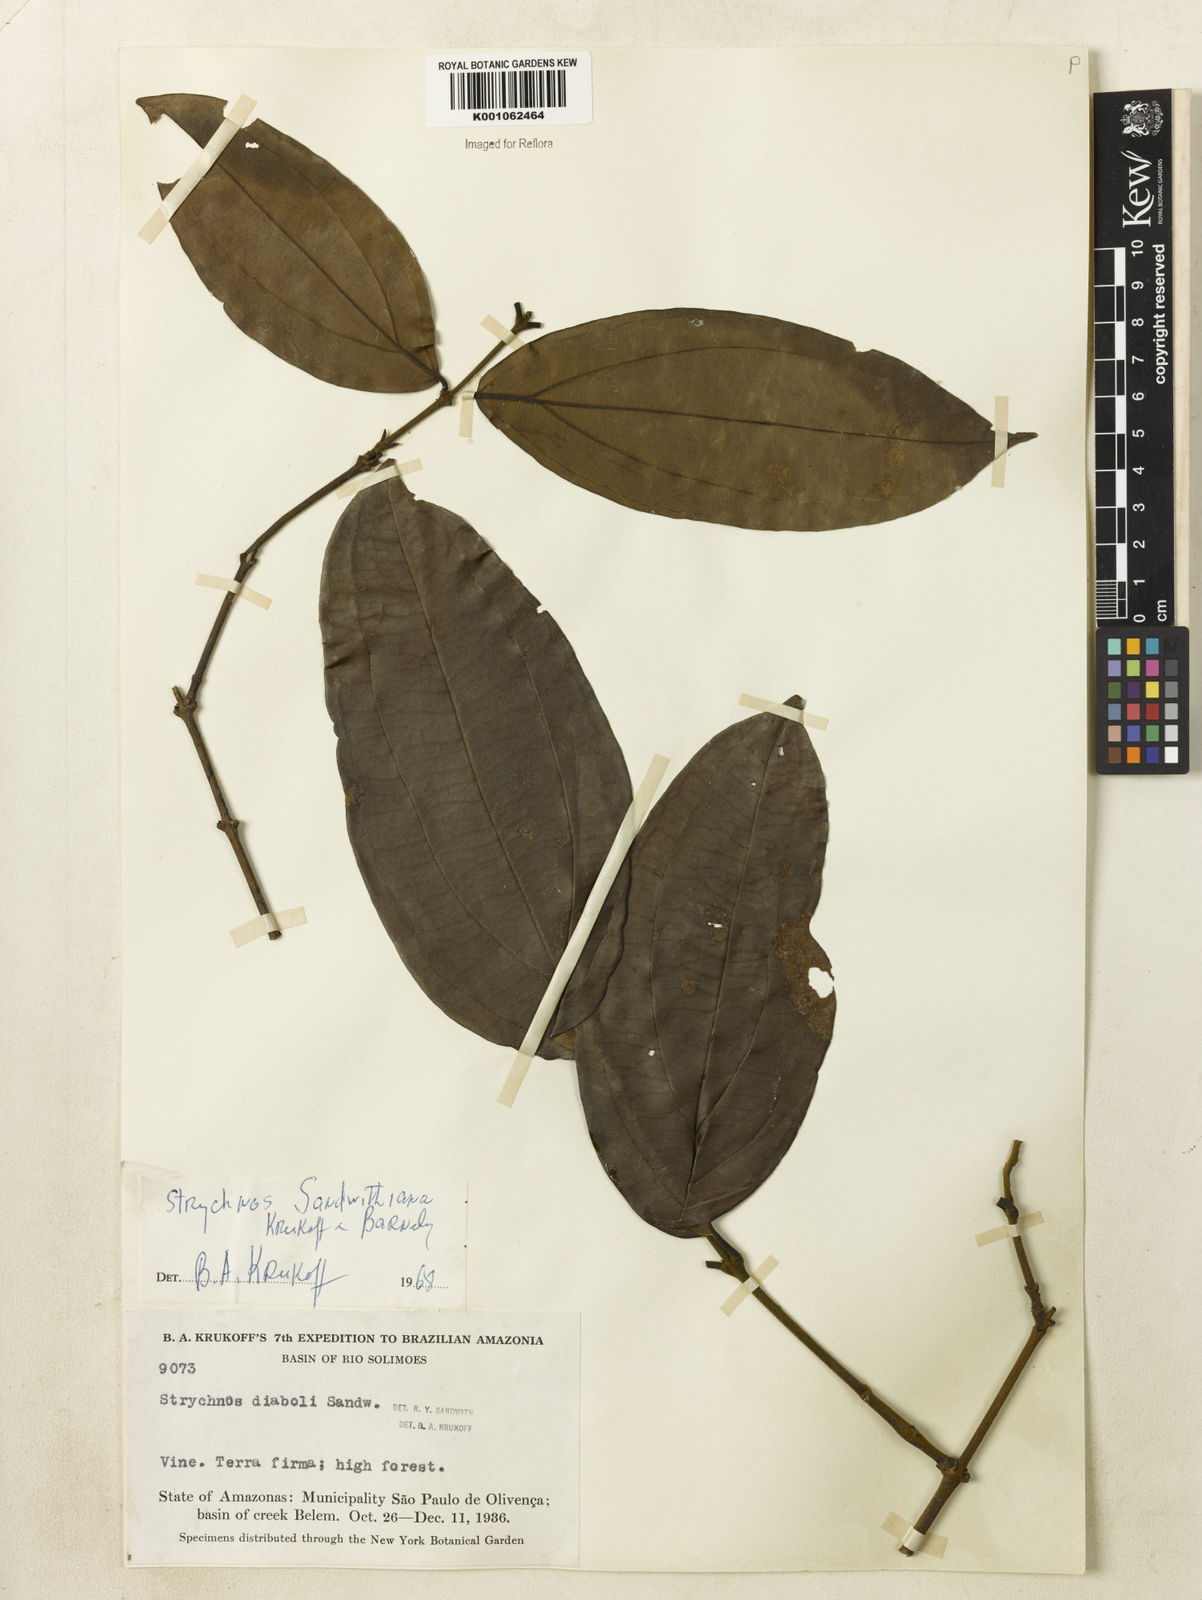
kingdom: Plantae
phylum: Tracheophyta
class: Magnoliopsida
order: Gentianales
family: Loganiaceae
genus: Strychnos
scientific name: Strychnos sandwithiana
